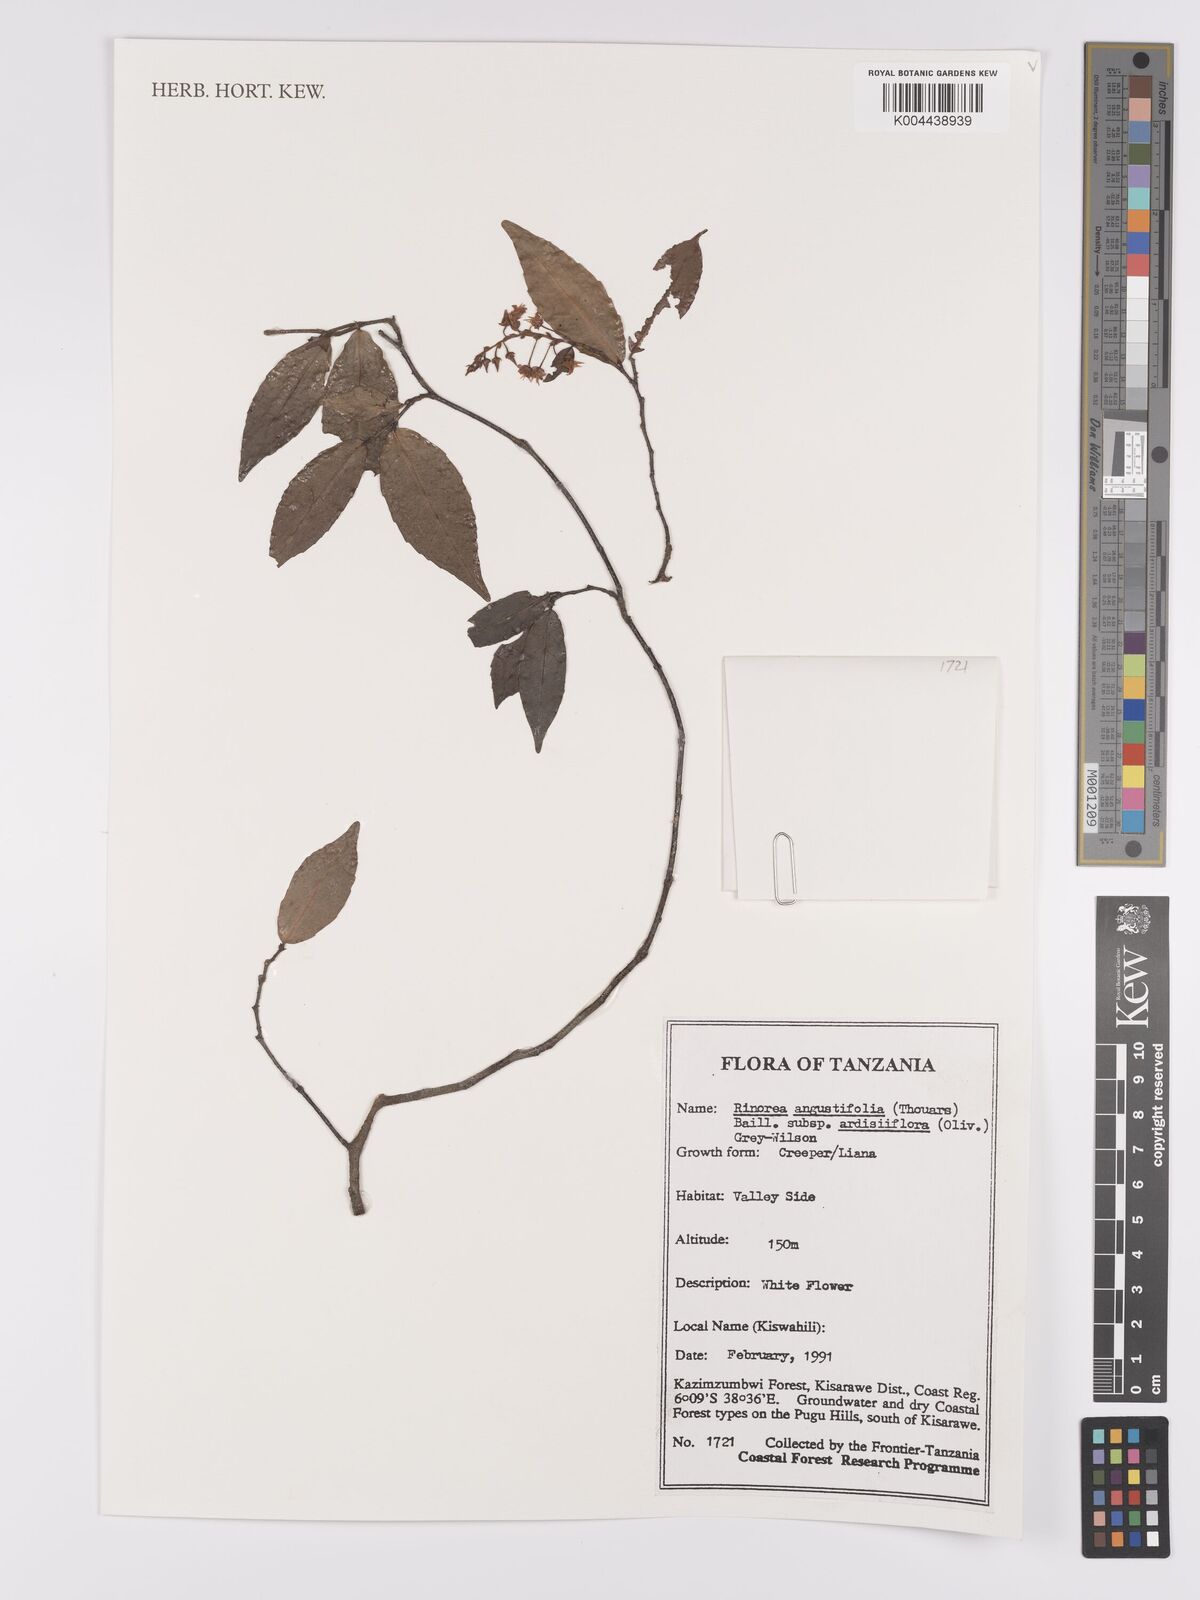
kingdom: Plantae
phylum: Tracheophyta
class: Magnoliopsida
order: Malpighiales
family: Violaceae
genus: Rinorea
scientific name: Rinorea angustifolia
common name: White violet-bush
